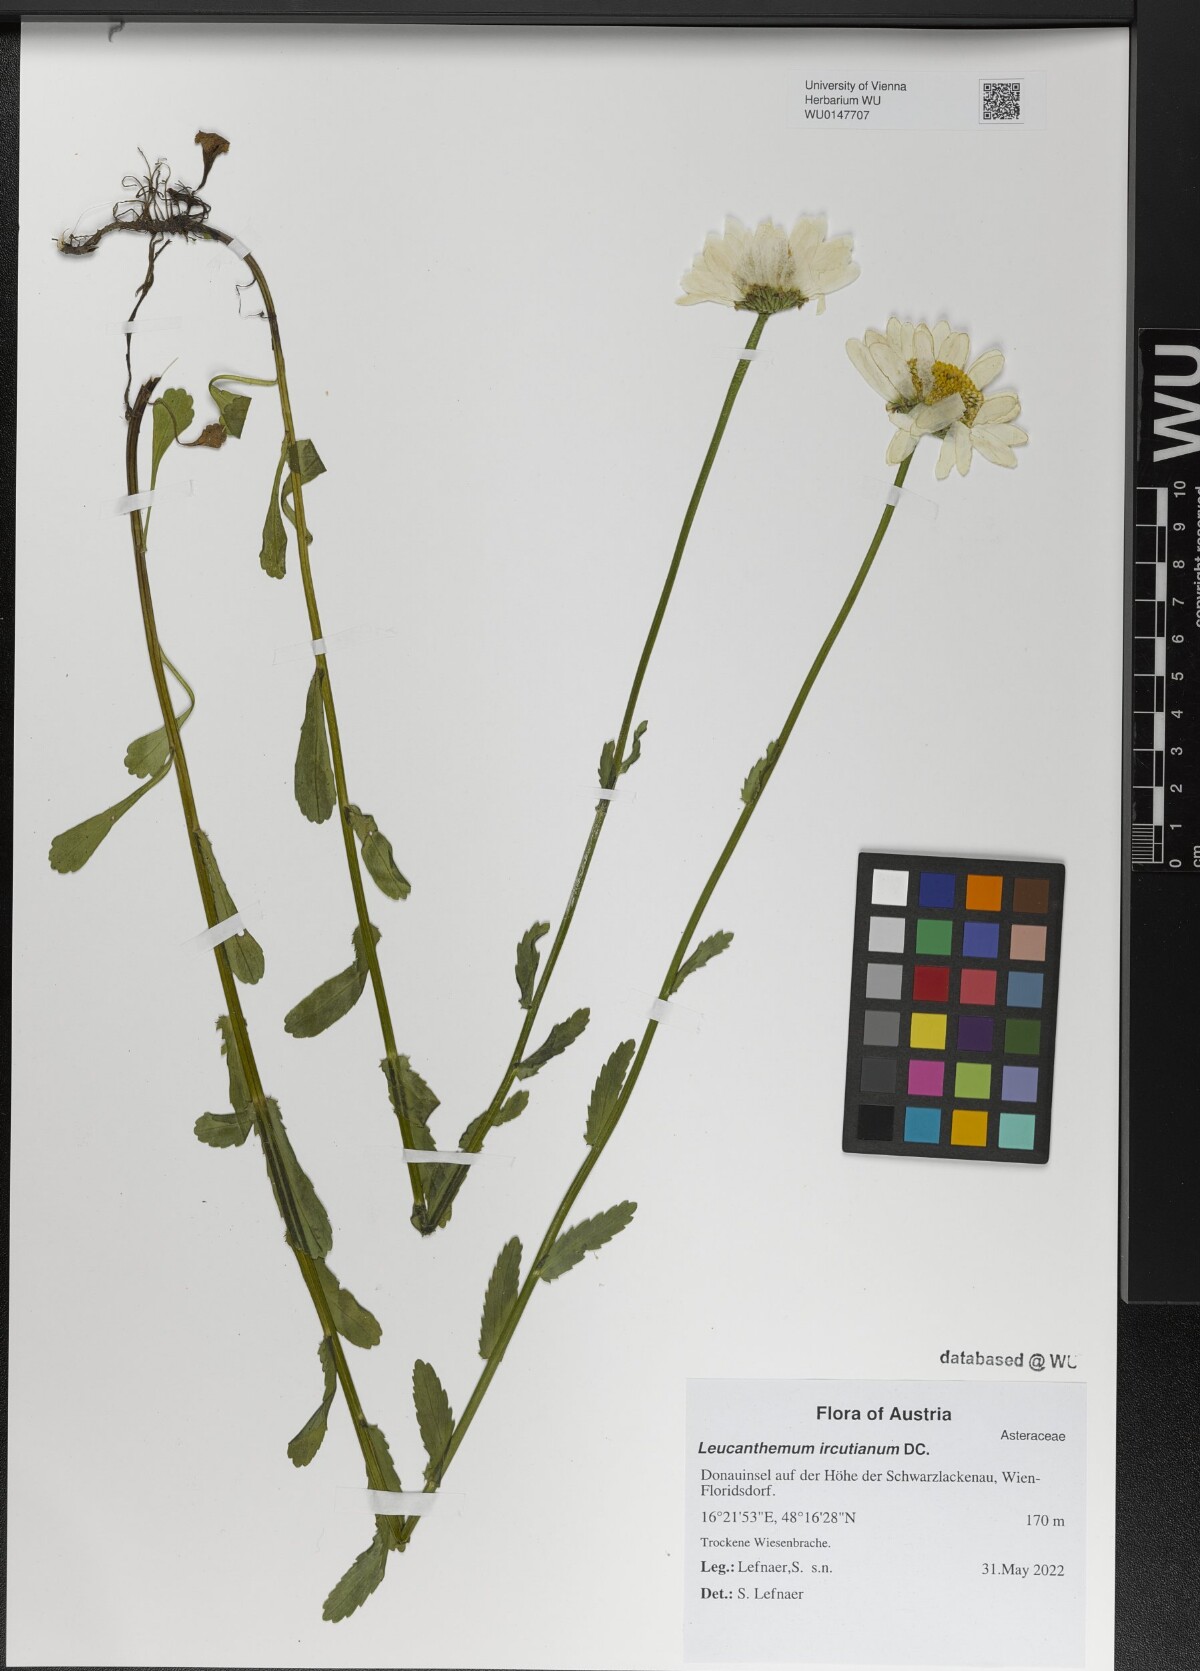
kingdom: Plantae
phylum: Tracheophyta
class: Magnoliopsida
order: Asterales
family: Asteraceae
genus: Leucanthemum
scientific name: Leucanthemum ircutianum
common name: Daisy
